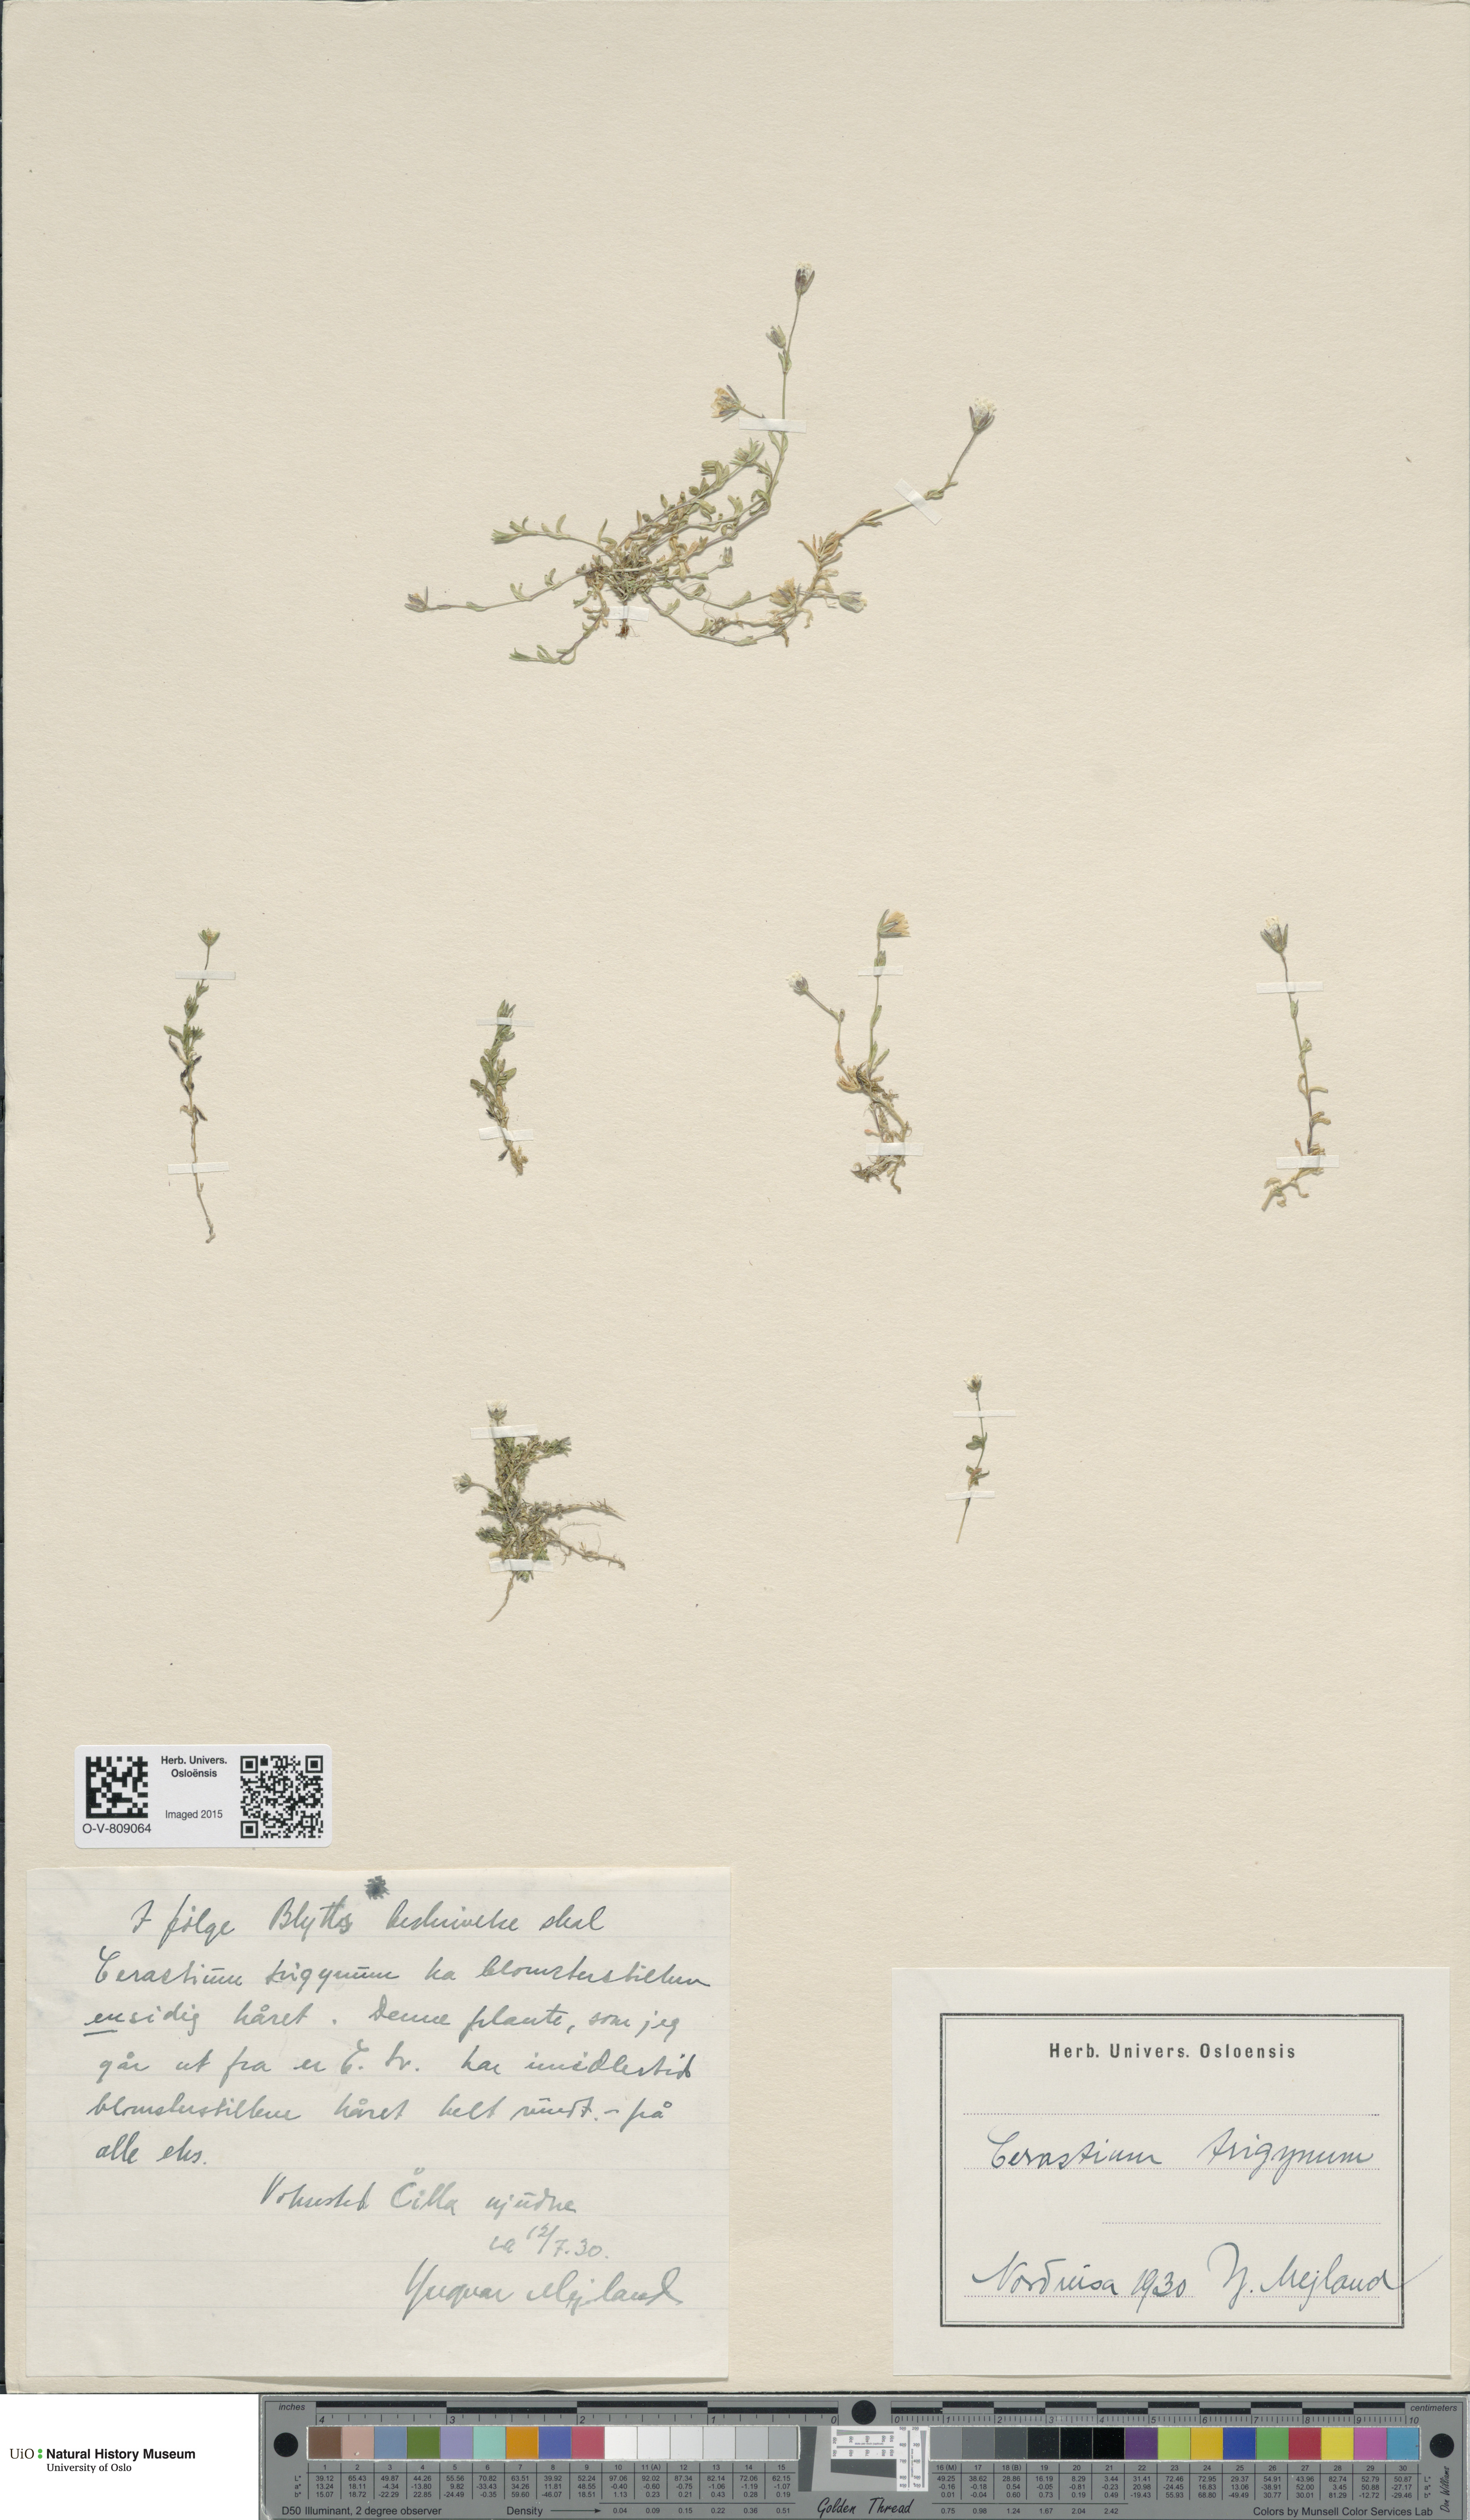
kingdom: Plantae
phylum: Tracheophyta
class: Magnoliopsida
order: Caryophyllales
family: Caryophyllaceae
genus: Dichodon
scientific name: Dichodon cerastoides
